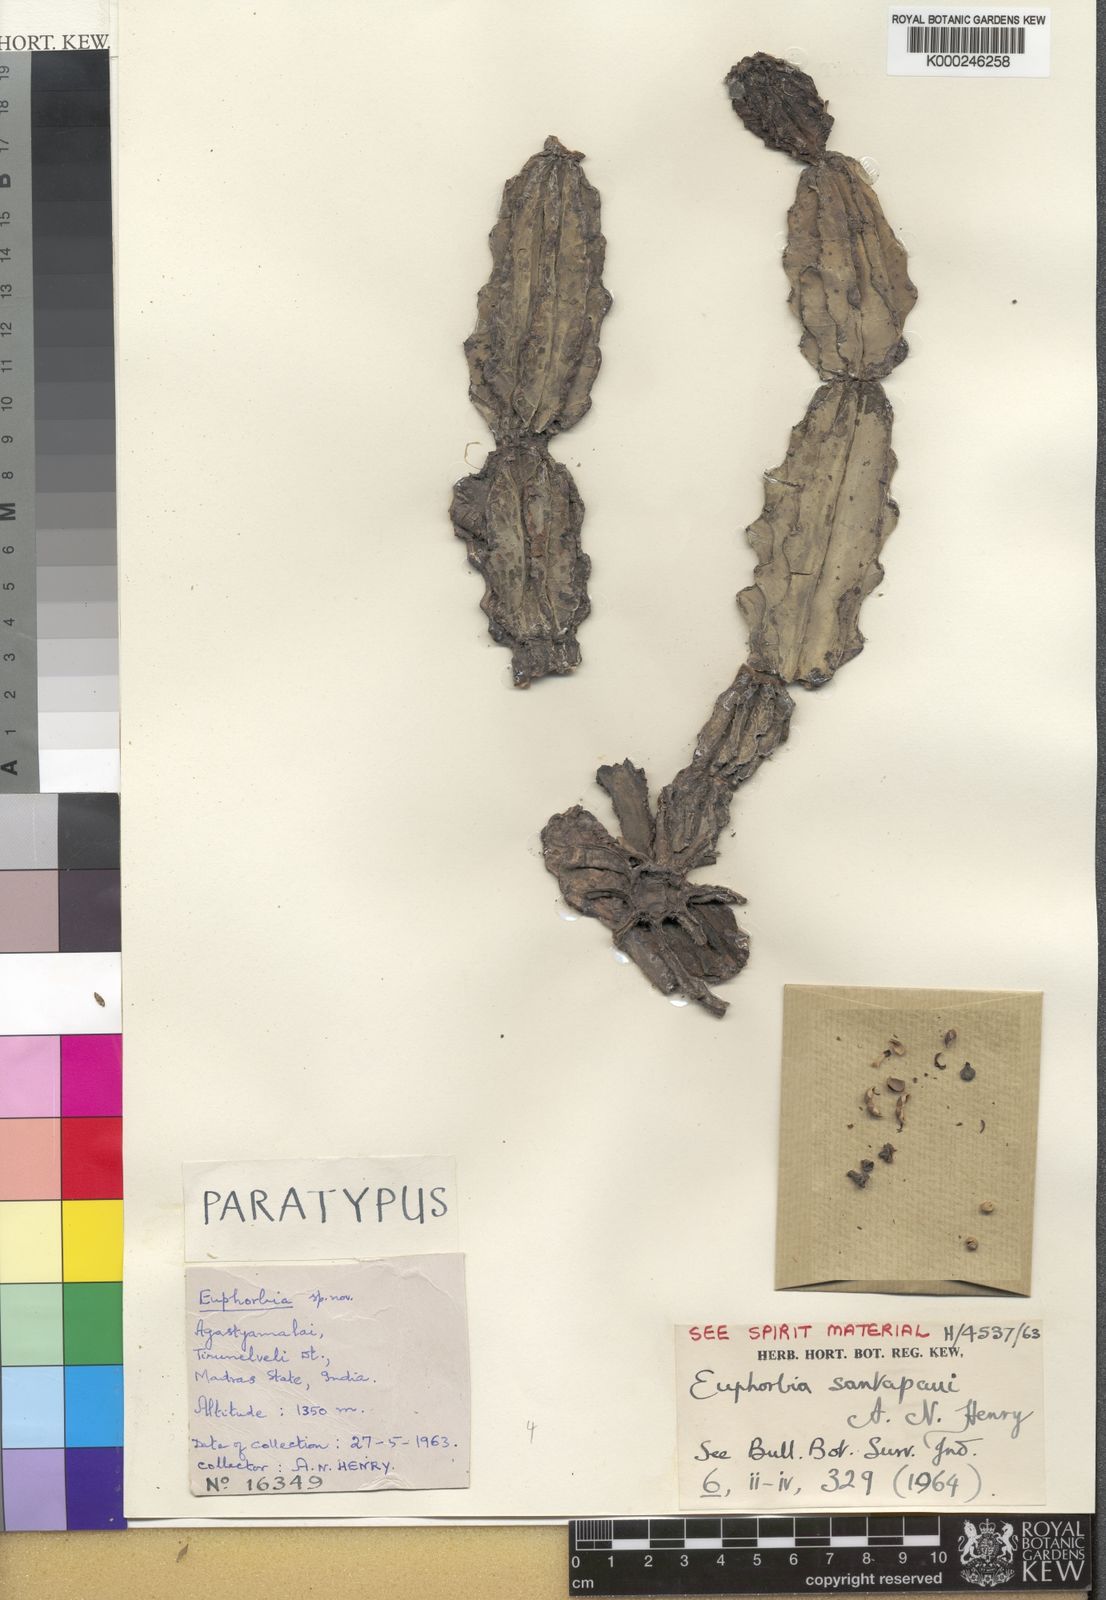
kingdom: Plantae
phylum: Tracheophyta
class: Magnoliopsida
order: Malpighiales
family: Euphorbiaceae
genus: Euphorbia
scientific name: Euphorbia santapaui
